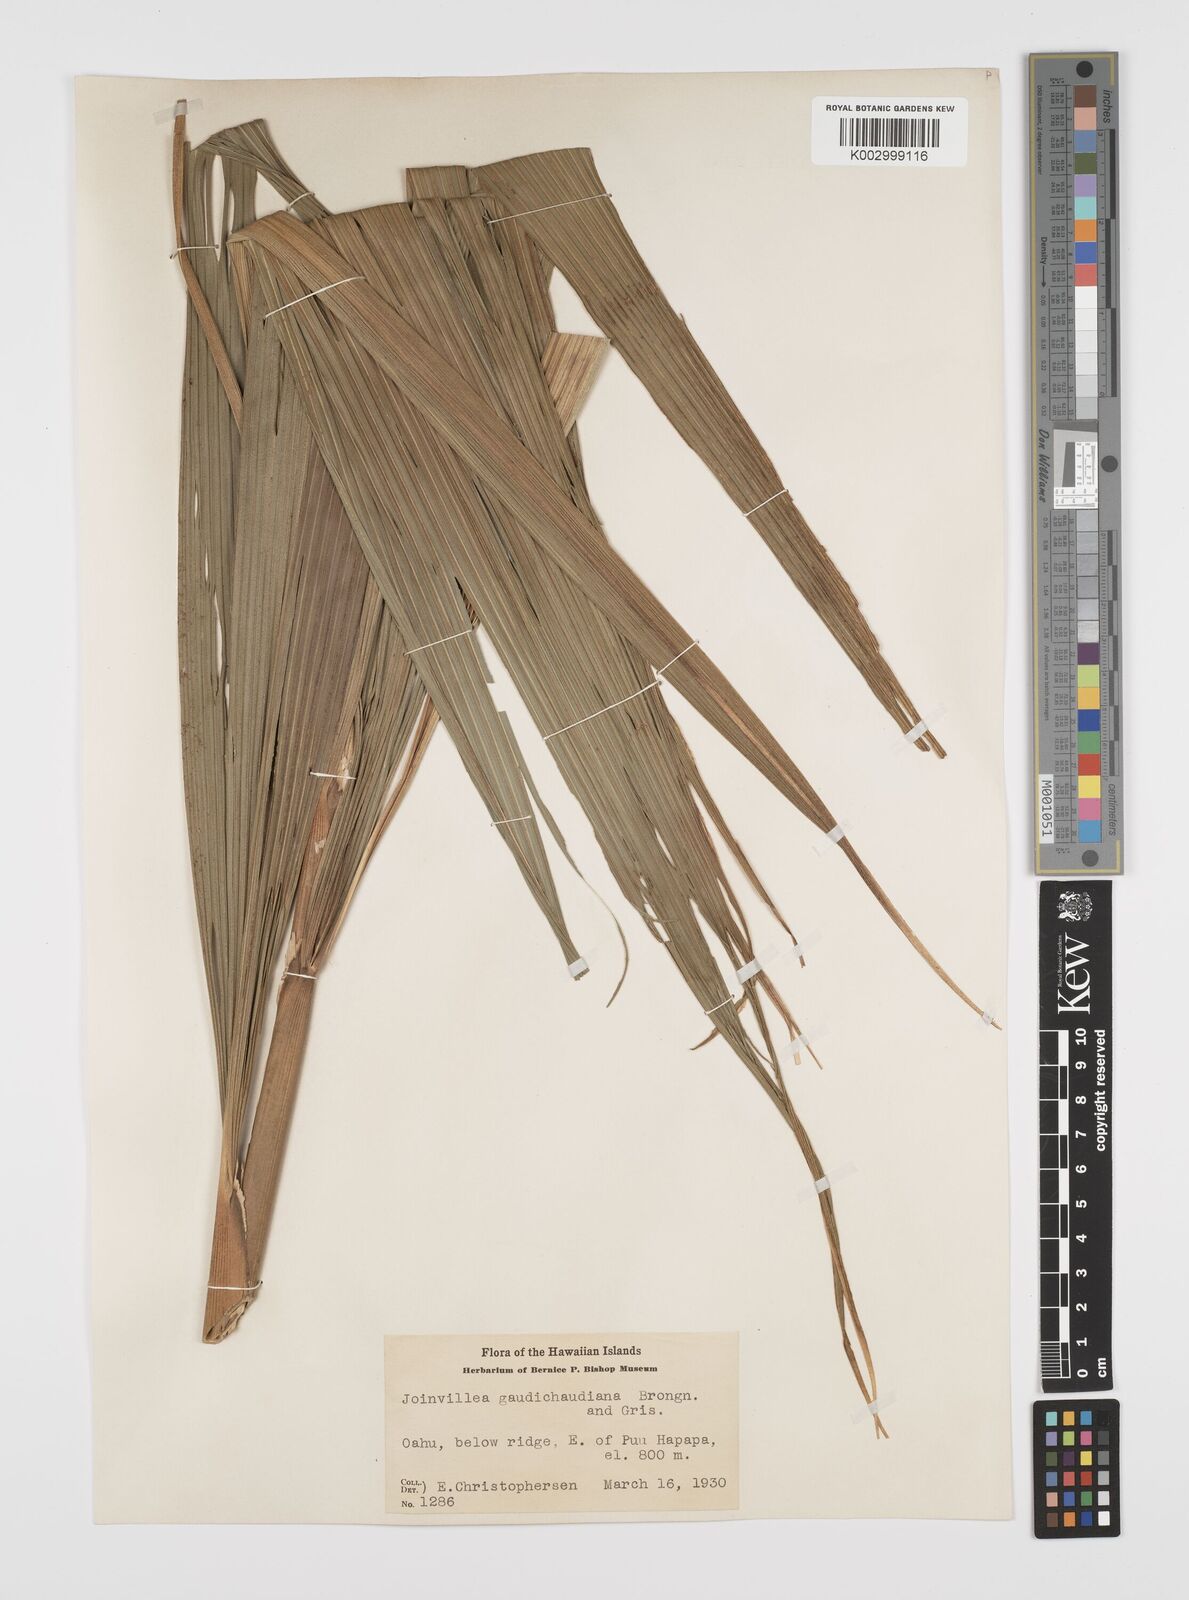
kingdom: Plantae
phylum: Tracheophyta
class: Liliopsida
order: Poales
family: Joinvilleaceae
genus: Joinvillea
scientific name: Joinvillea bryanii
